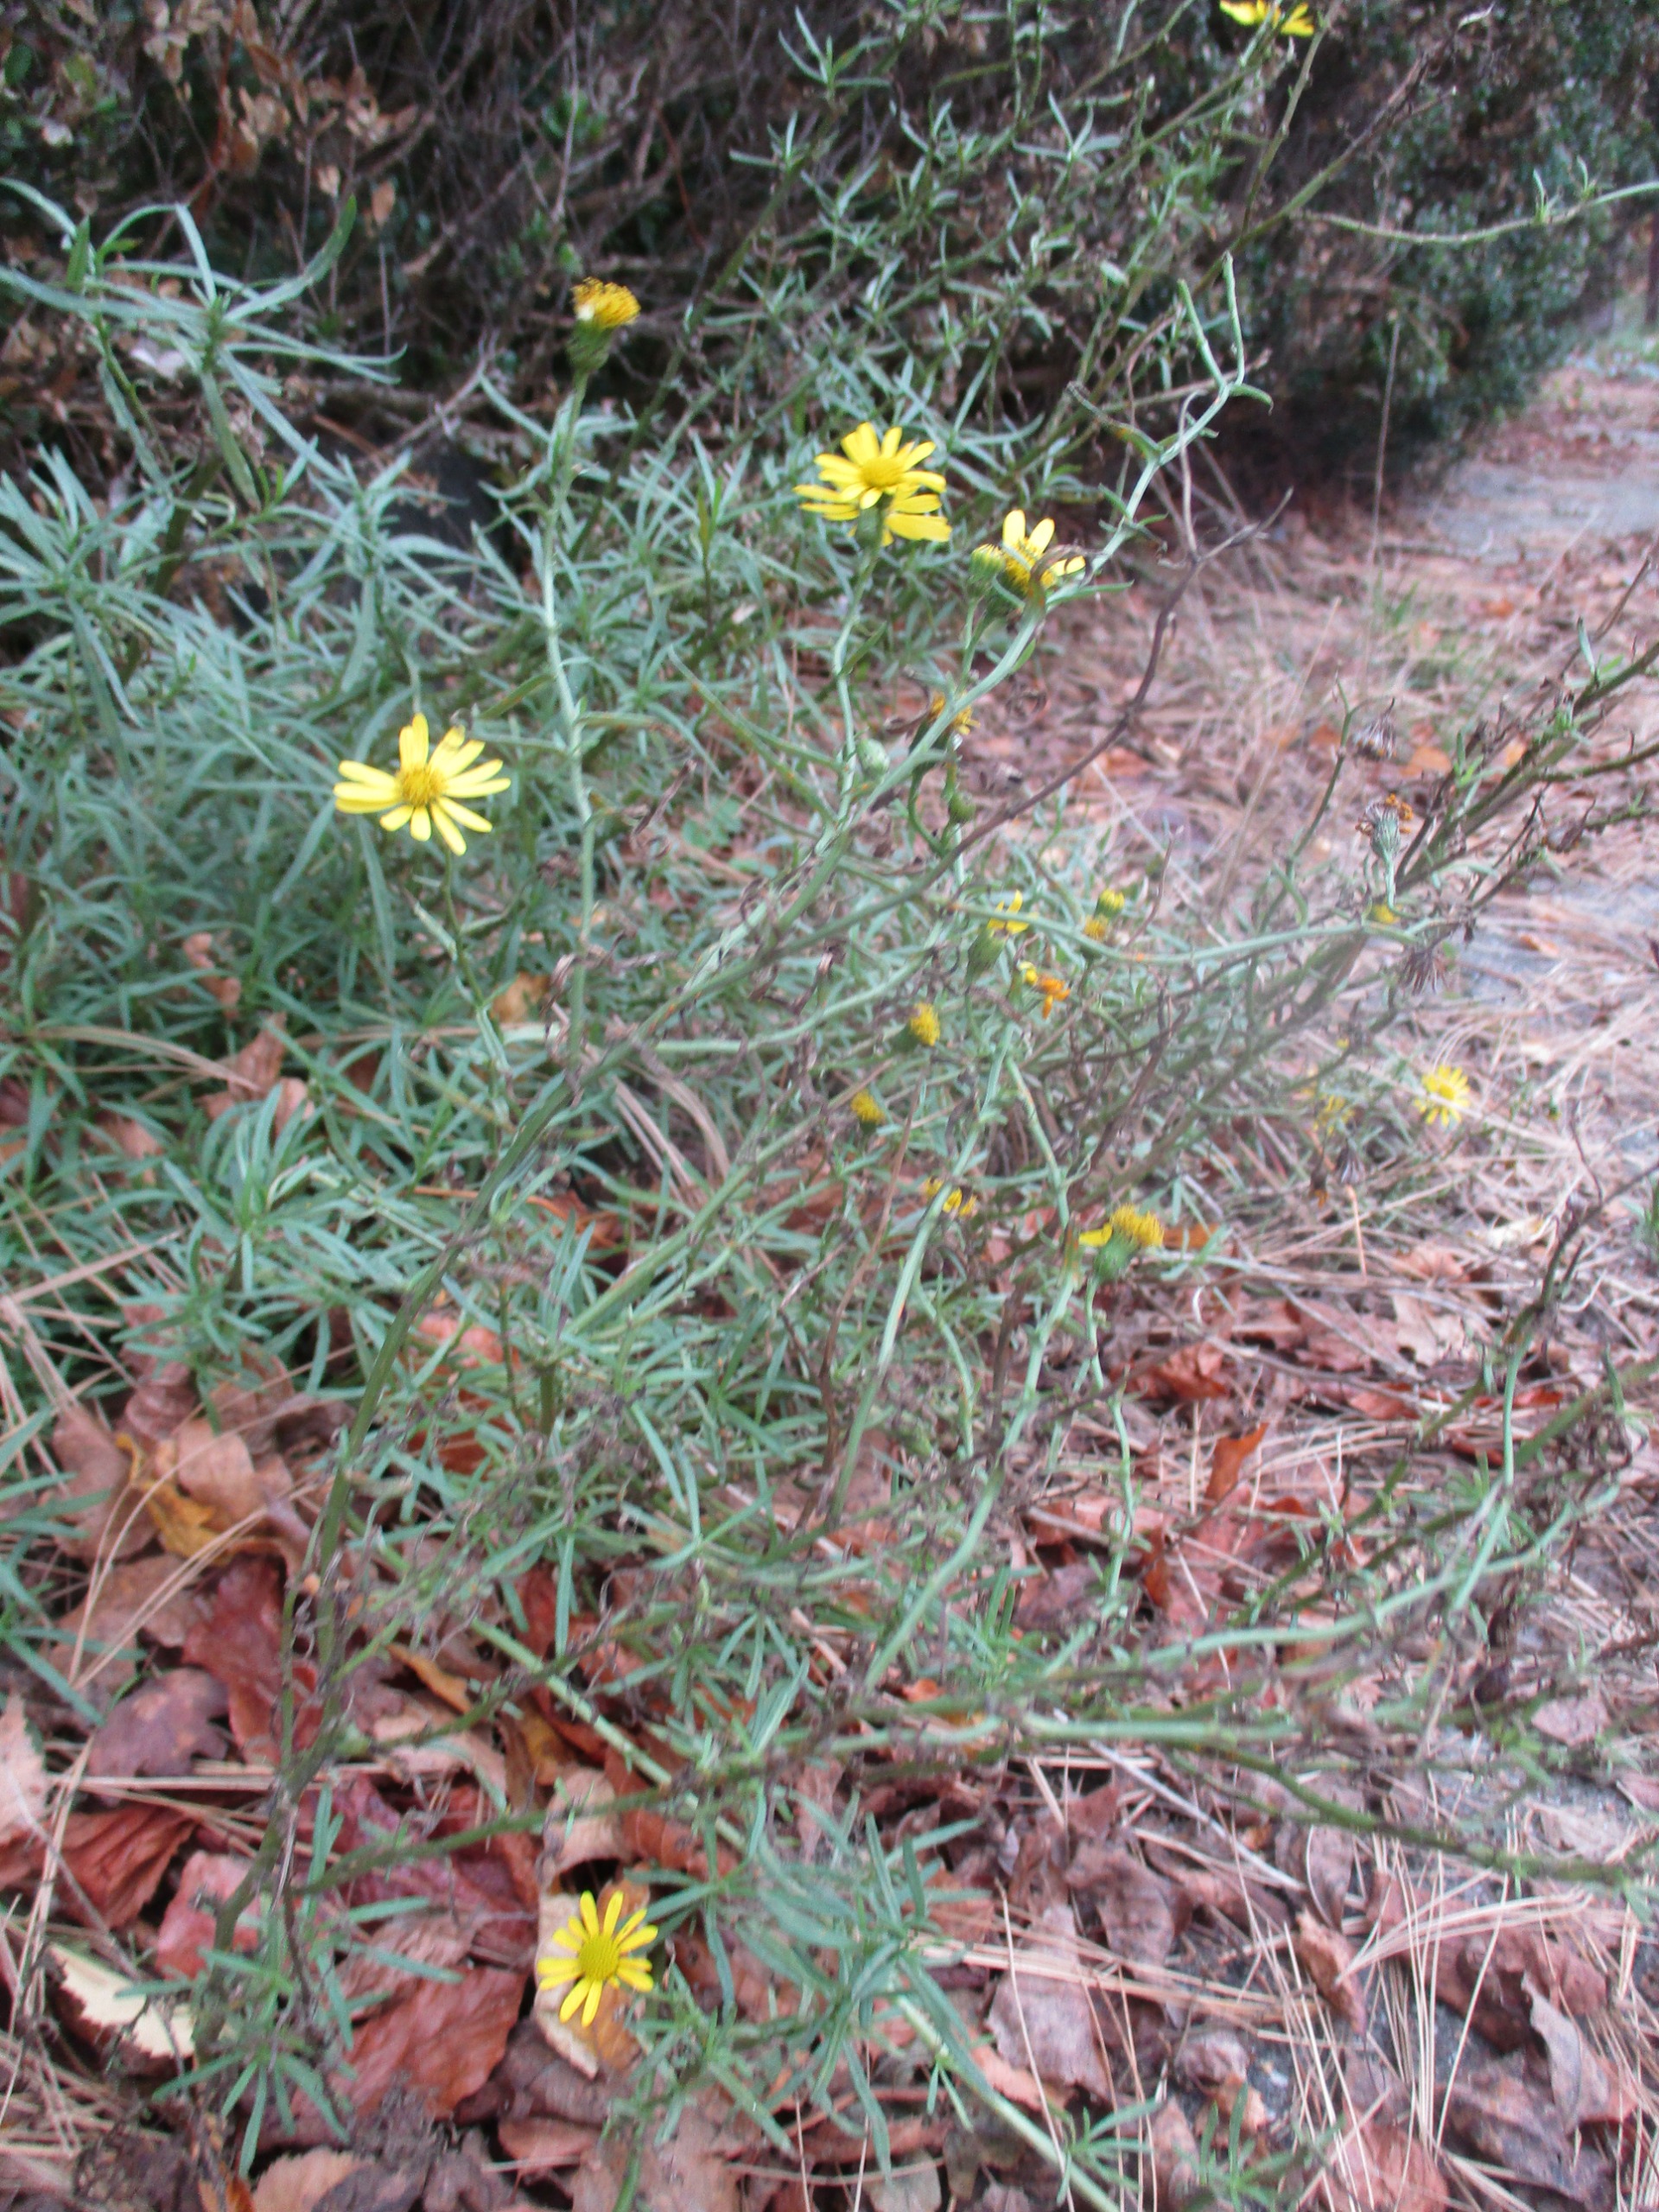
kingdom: Plantae
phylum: Tracheophyta
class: Magnoliopsida
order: Asterales
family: Asteraceae
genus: Senecio
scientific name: Senecio inaequidens
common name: Smalbladet brandbæger
